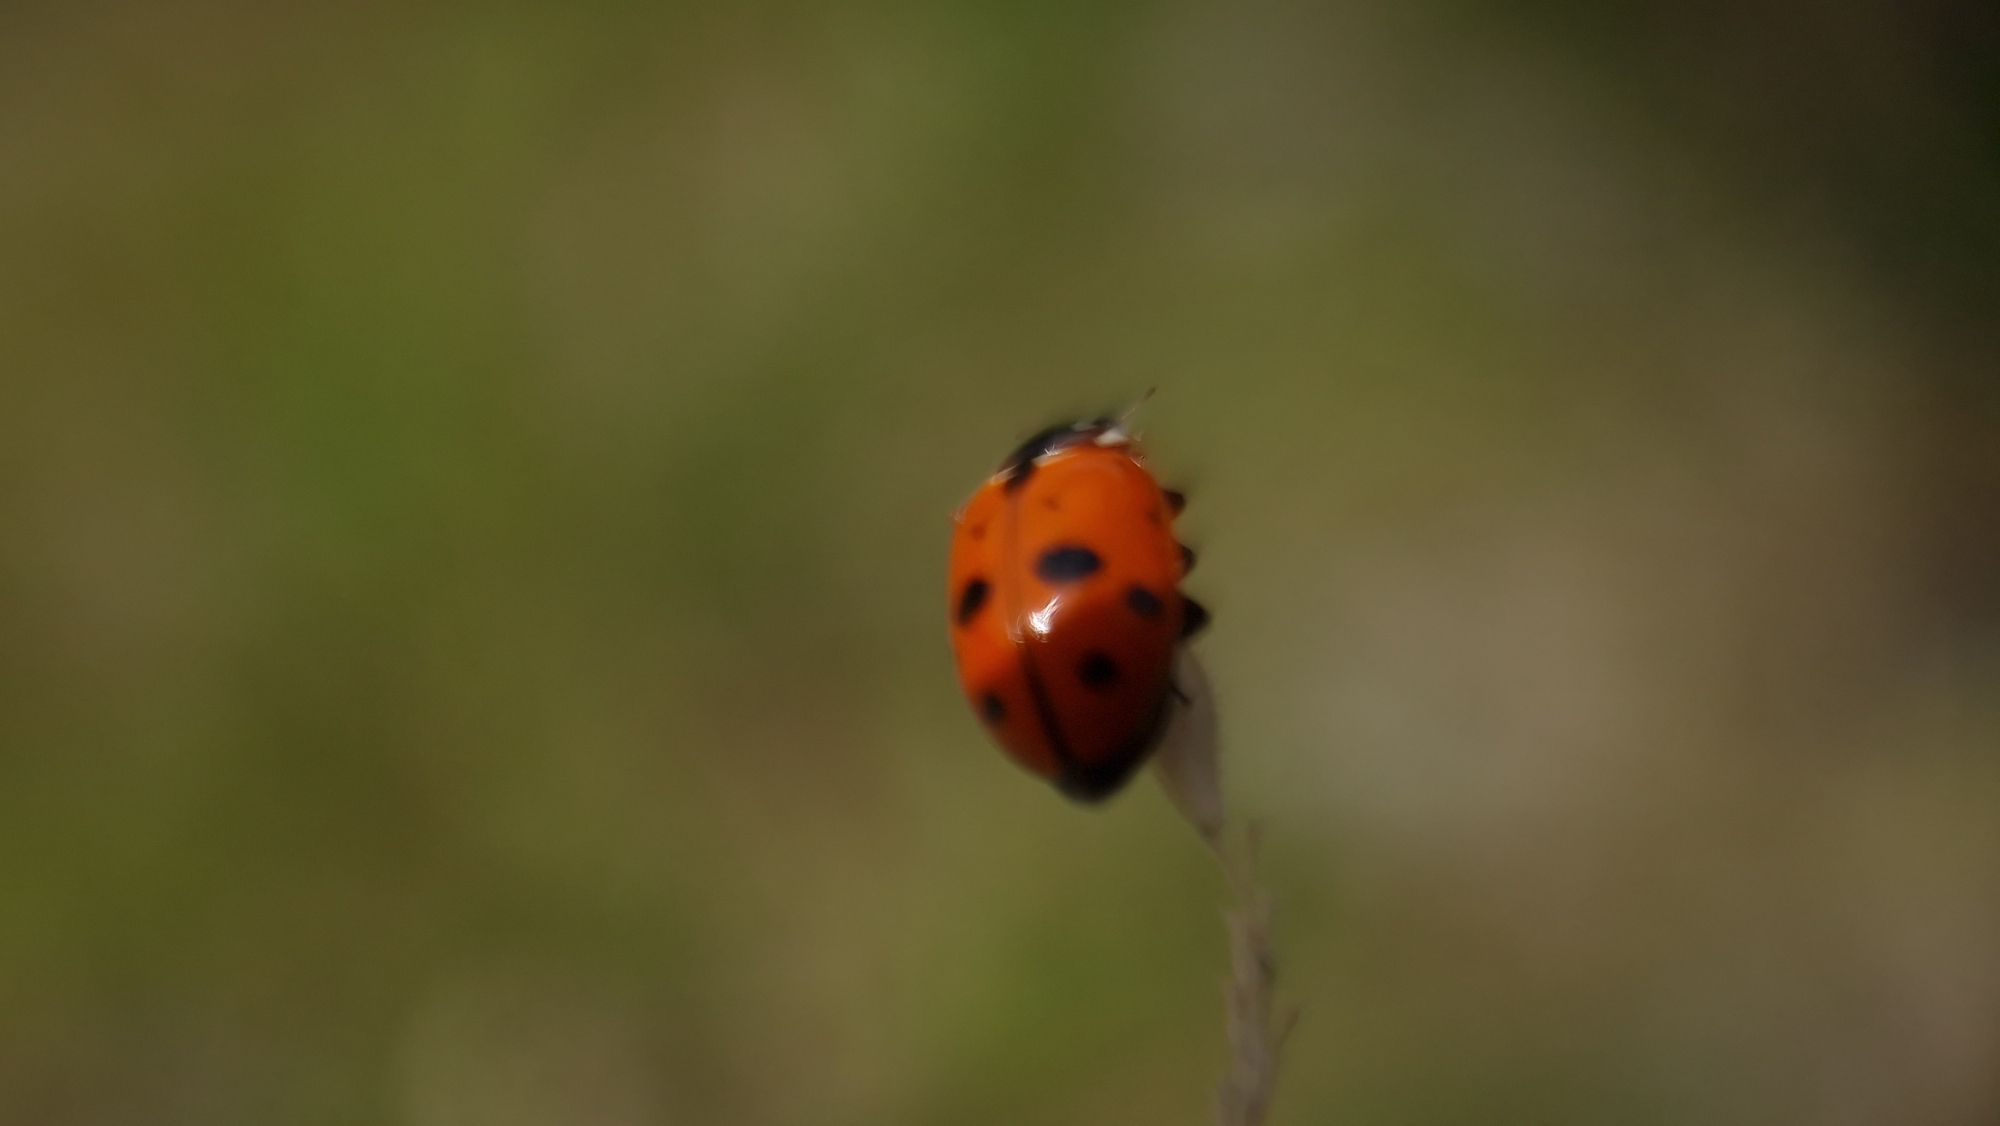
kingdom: Animalia
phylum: Arthropoda
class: Insecta
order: Coleoptera
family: Coccinellidae
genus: Hippodamia
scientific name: Hippodamia variegata
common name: Adonis' mariehøne
